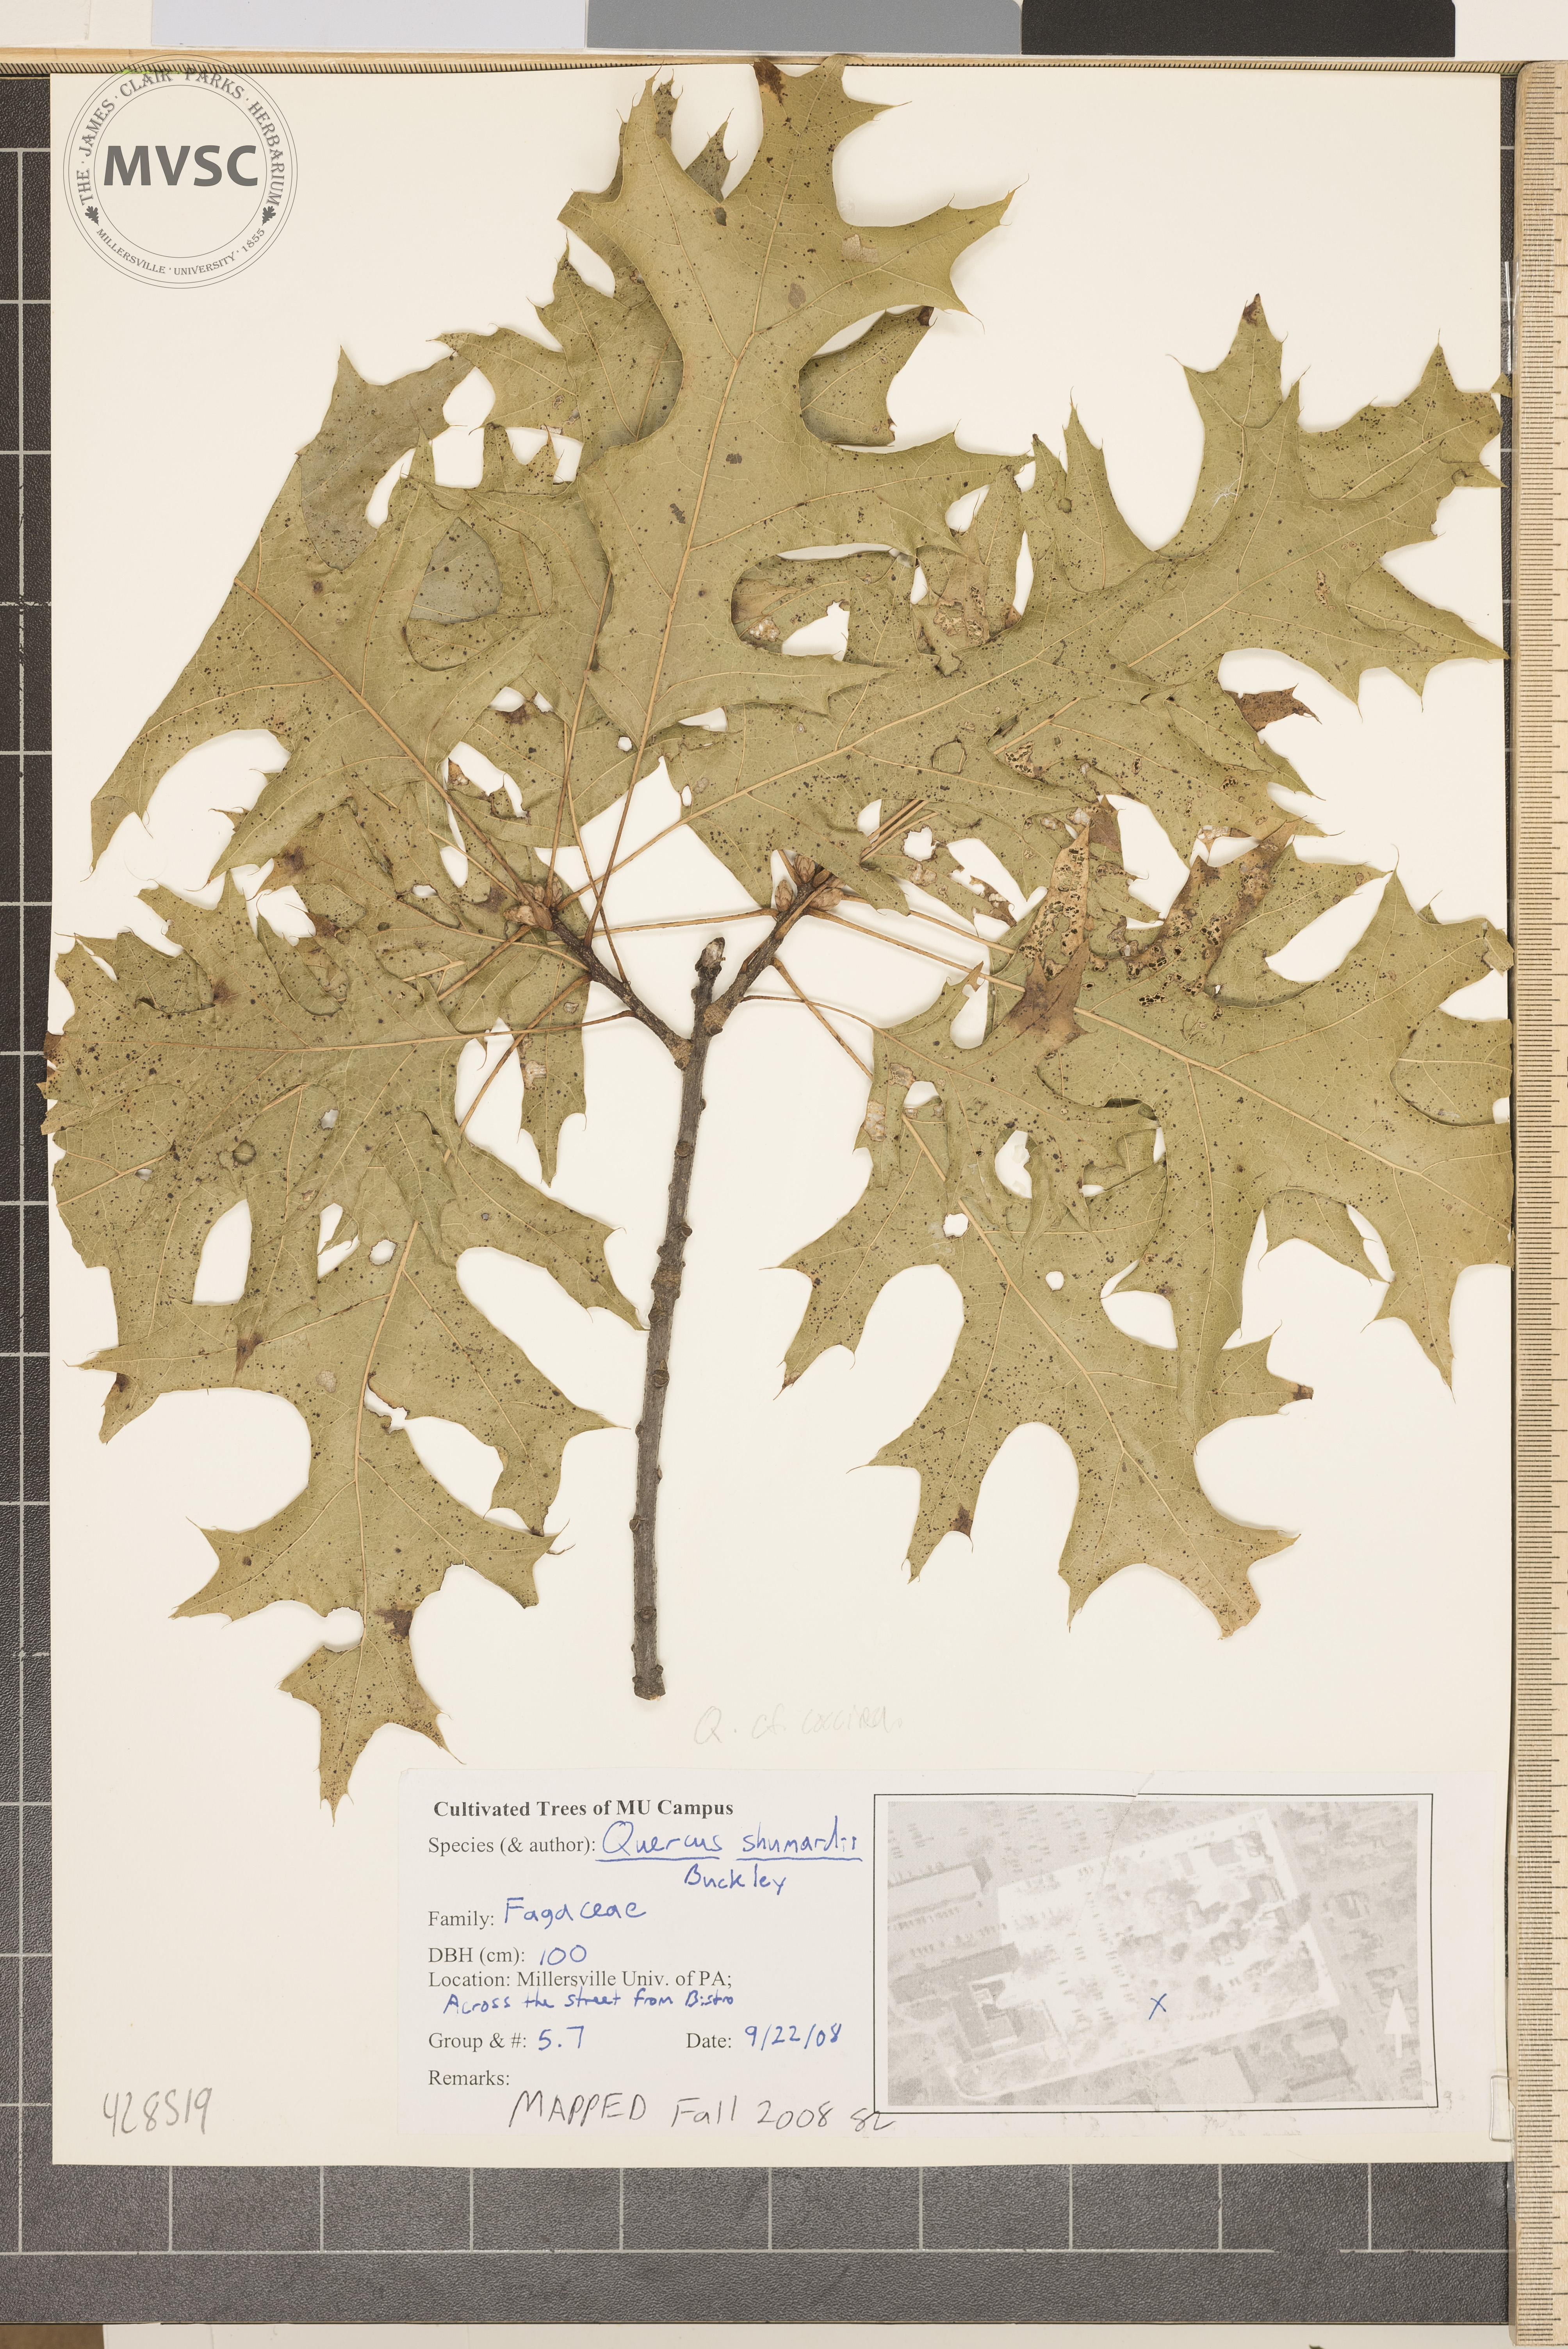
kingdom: Plantae
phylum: Tracheophyta
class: Magnoliopsida
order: Fagales
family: Fagaceae
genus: Quercus
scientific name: Quercus coccinea
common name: Scarlet oak
